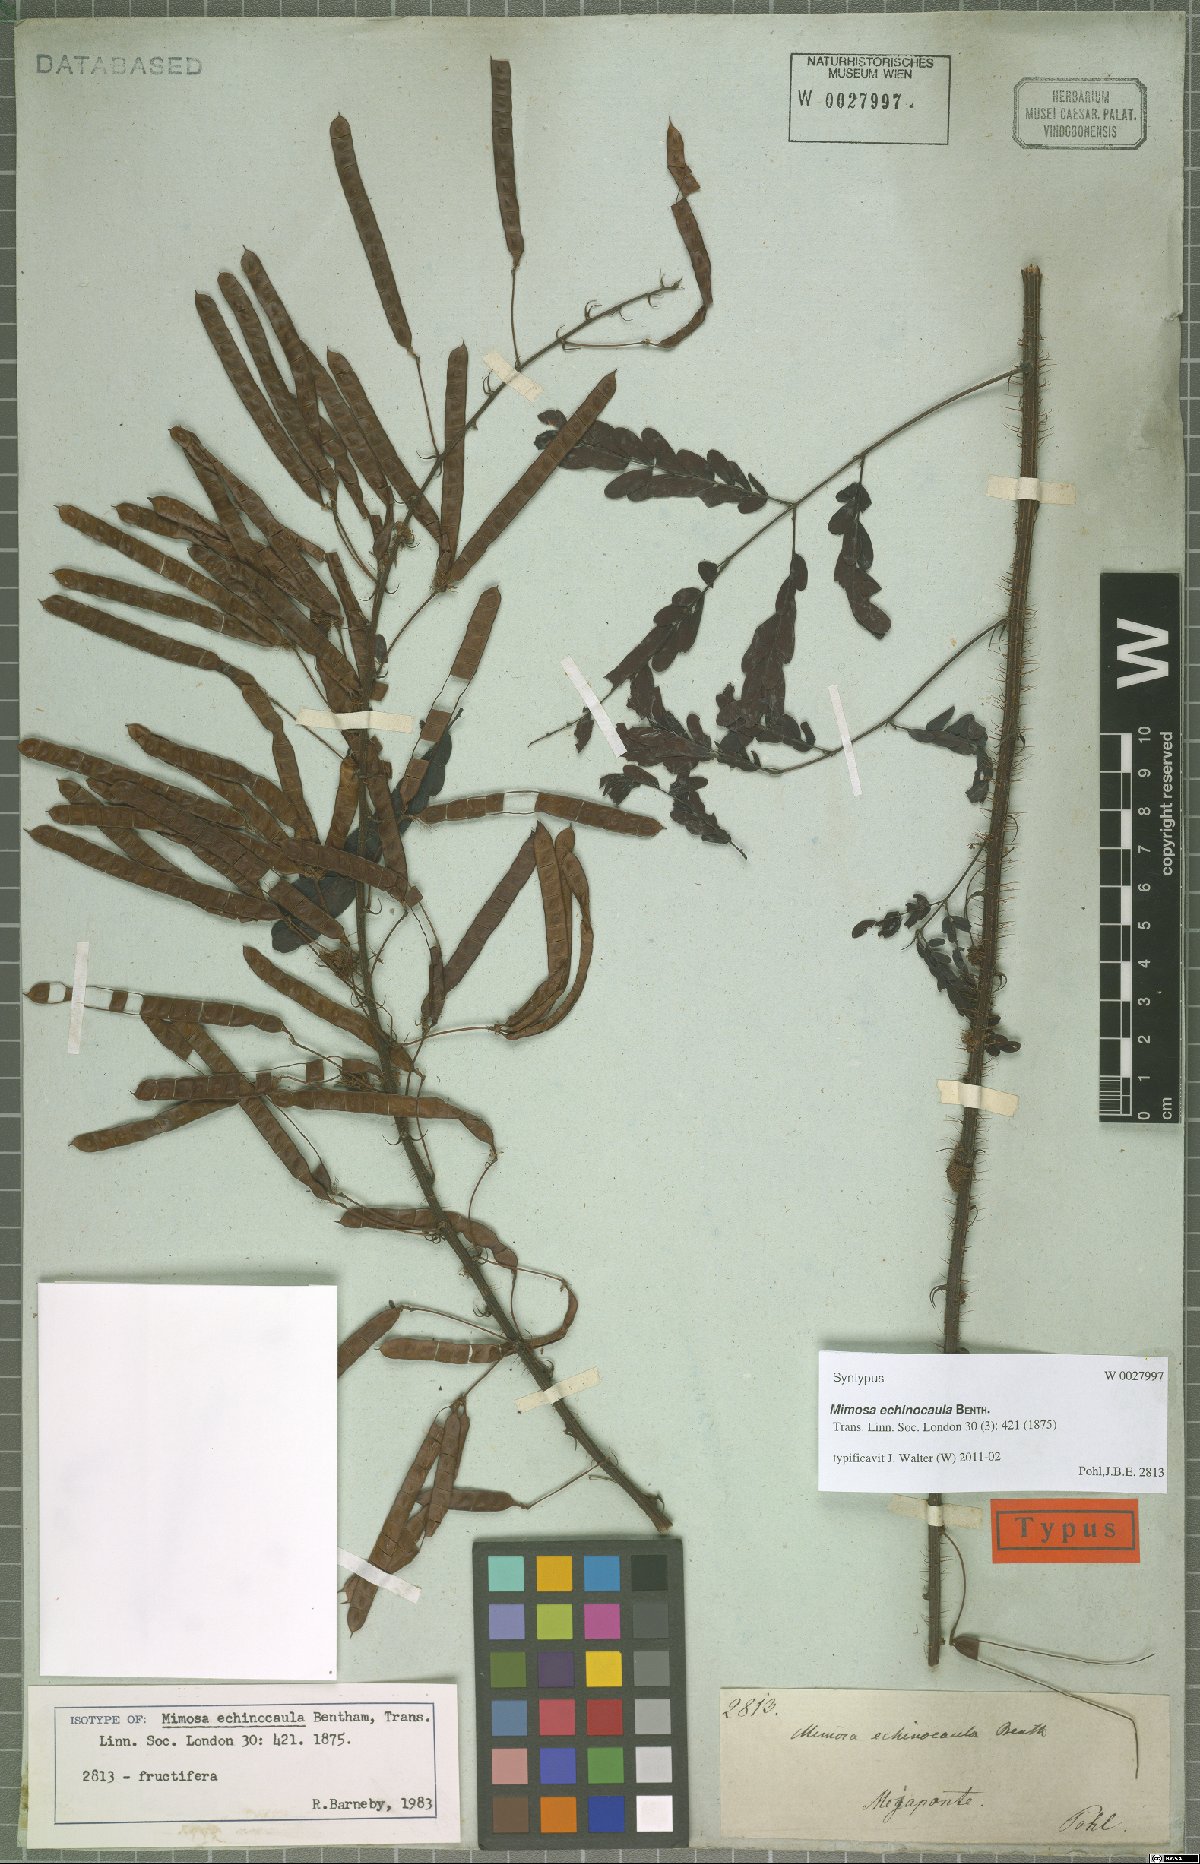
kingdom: Plantae
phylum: Tracheophyta
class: Magnoliopsida
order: Fabales
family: Fabaceae
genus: Mimosa
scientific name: Mimosa echinocaula
